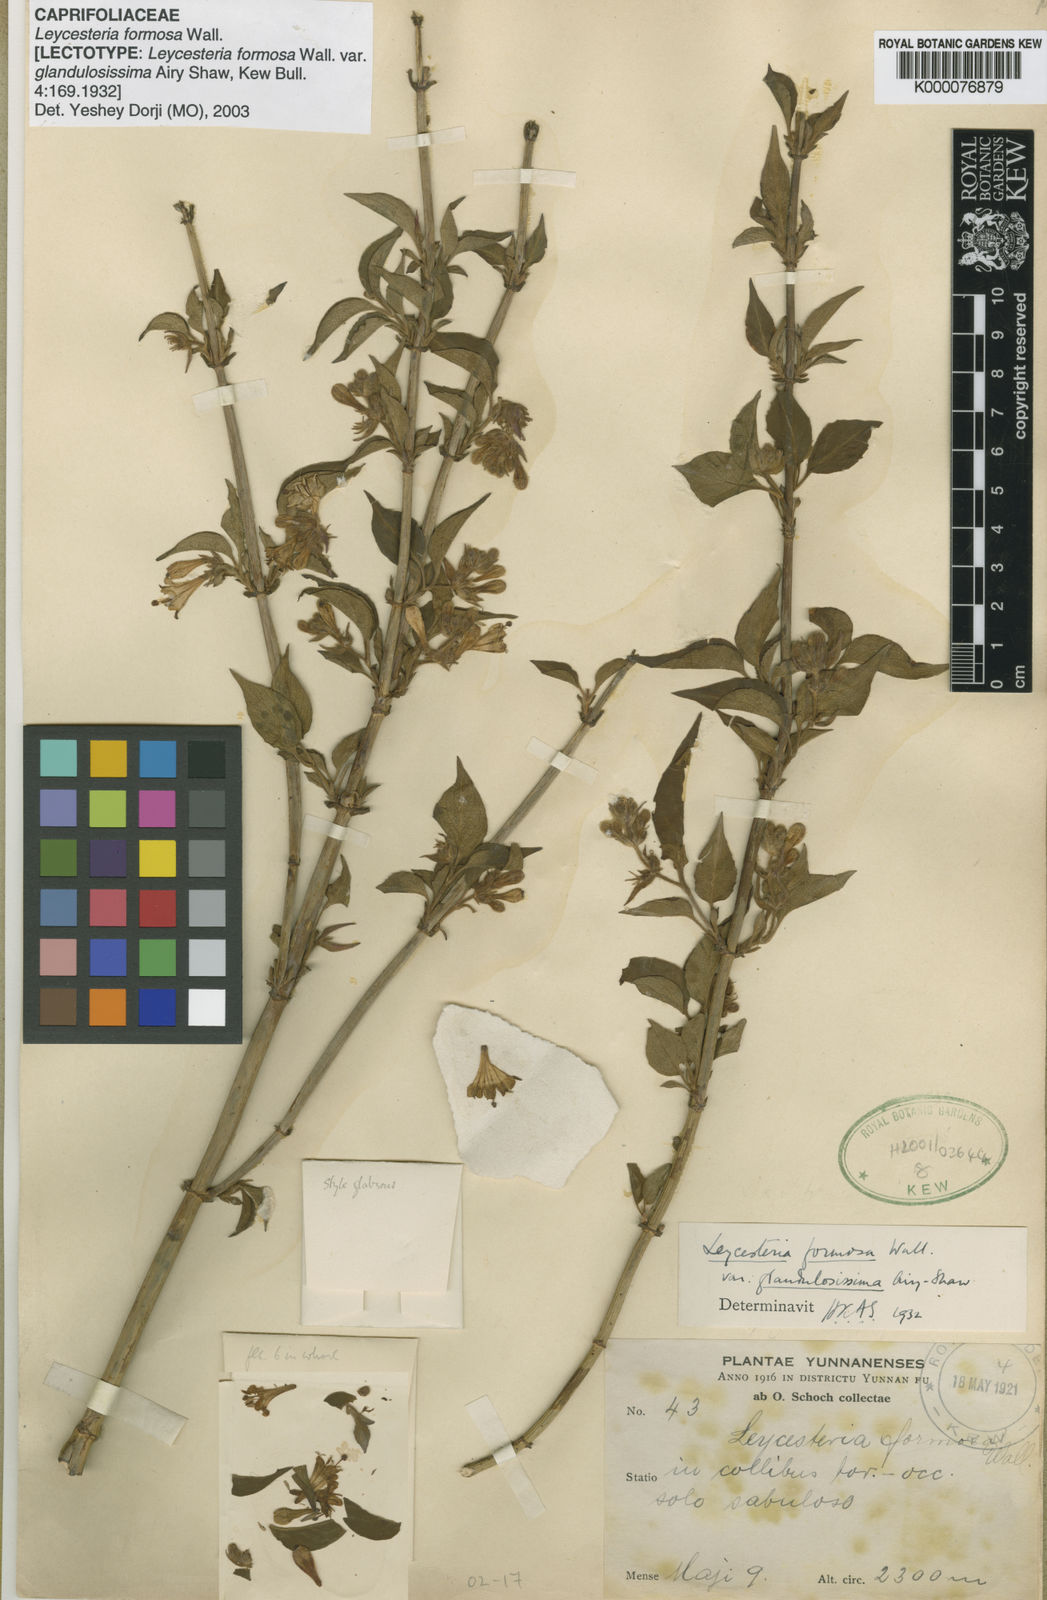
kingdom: Plantae
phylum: Tracheophyta
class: Magnoliopsida
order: Dipsacales
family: Caprifoliaceae
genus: Leycesteria
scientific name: Leycesteria formosa
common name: Himalayan honeysuckle
